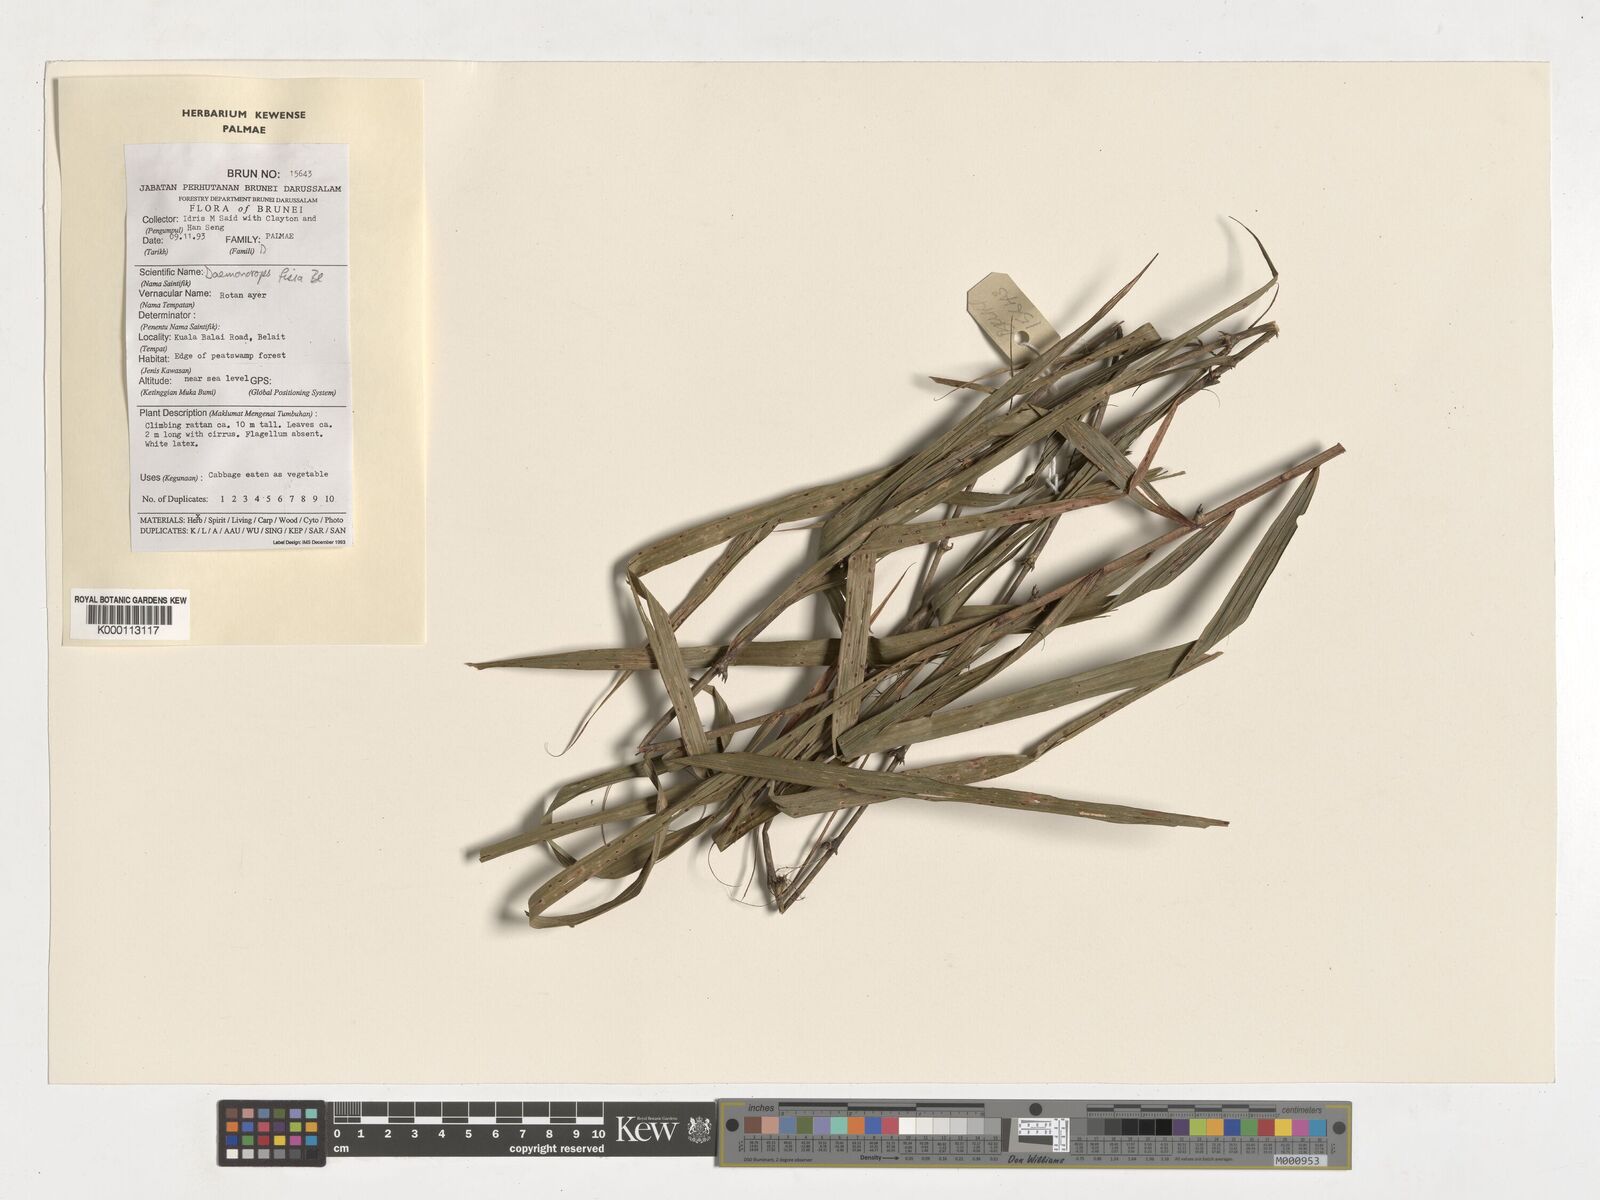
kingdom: Plantae
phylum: Tracheophyta
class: Liliopsida
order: Arecales
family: Arecaceae
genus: Calamus
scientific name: Calamus melanochaetes
